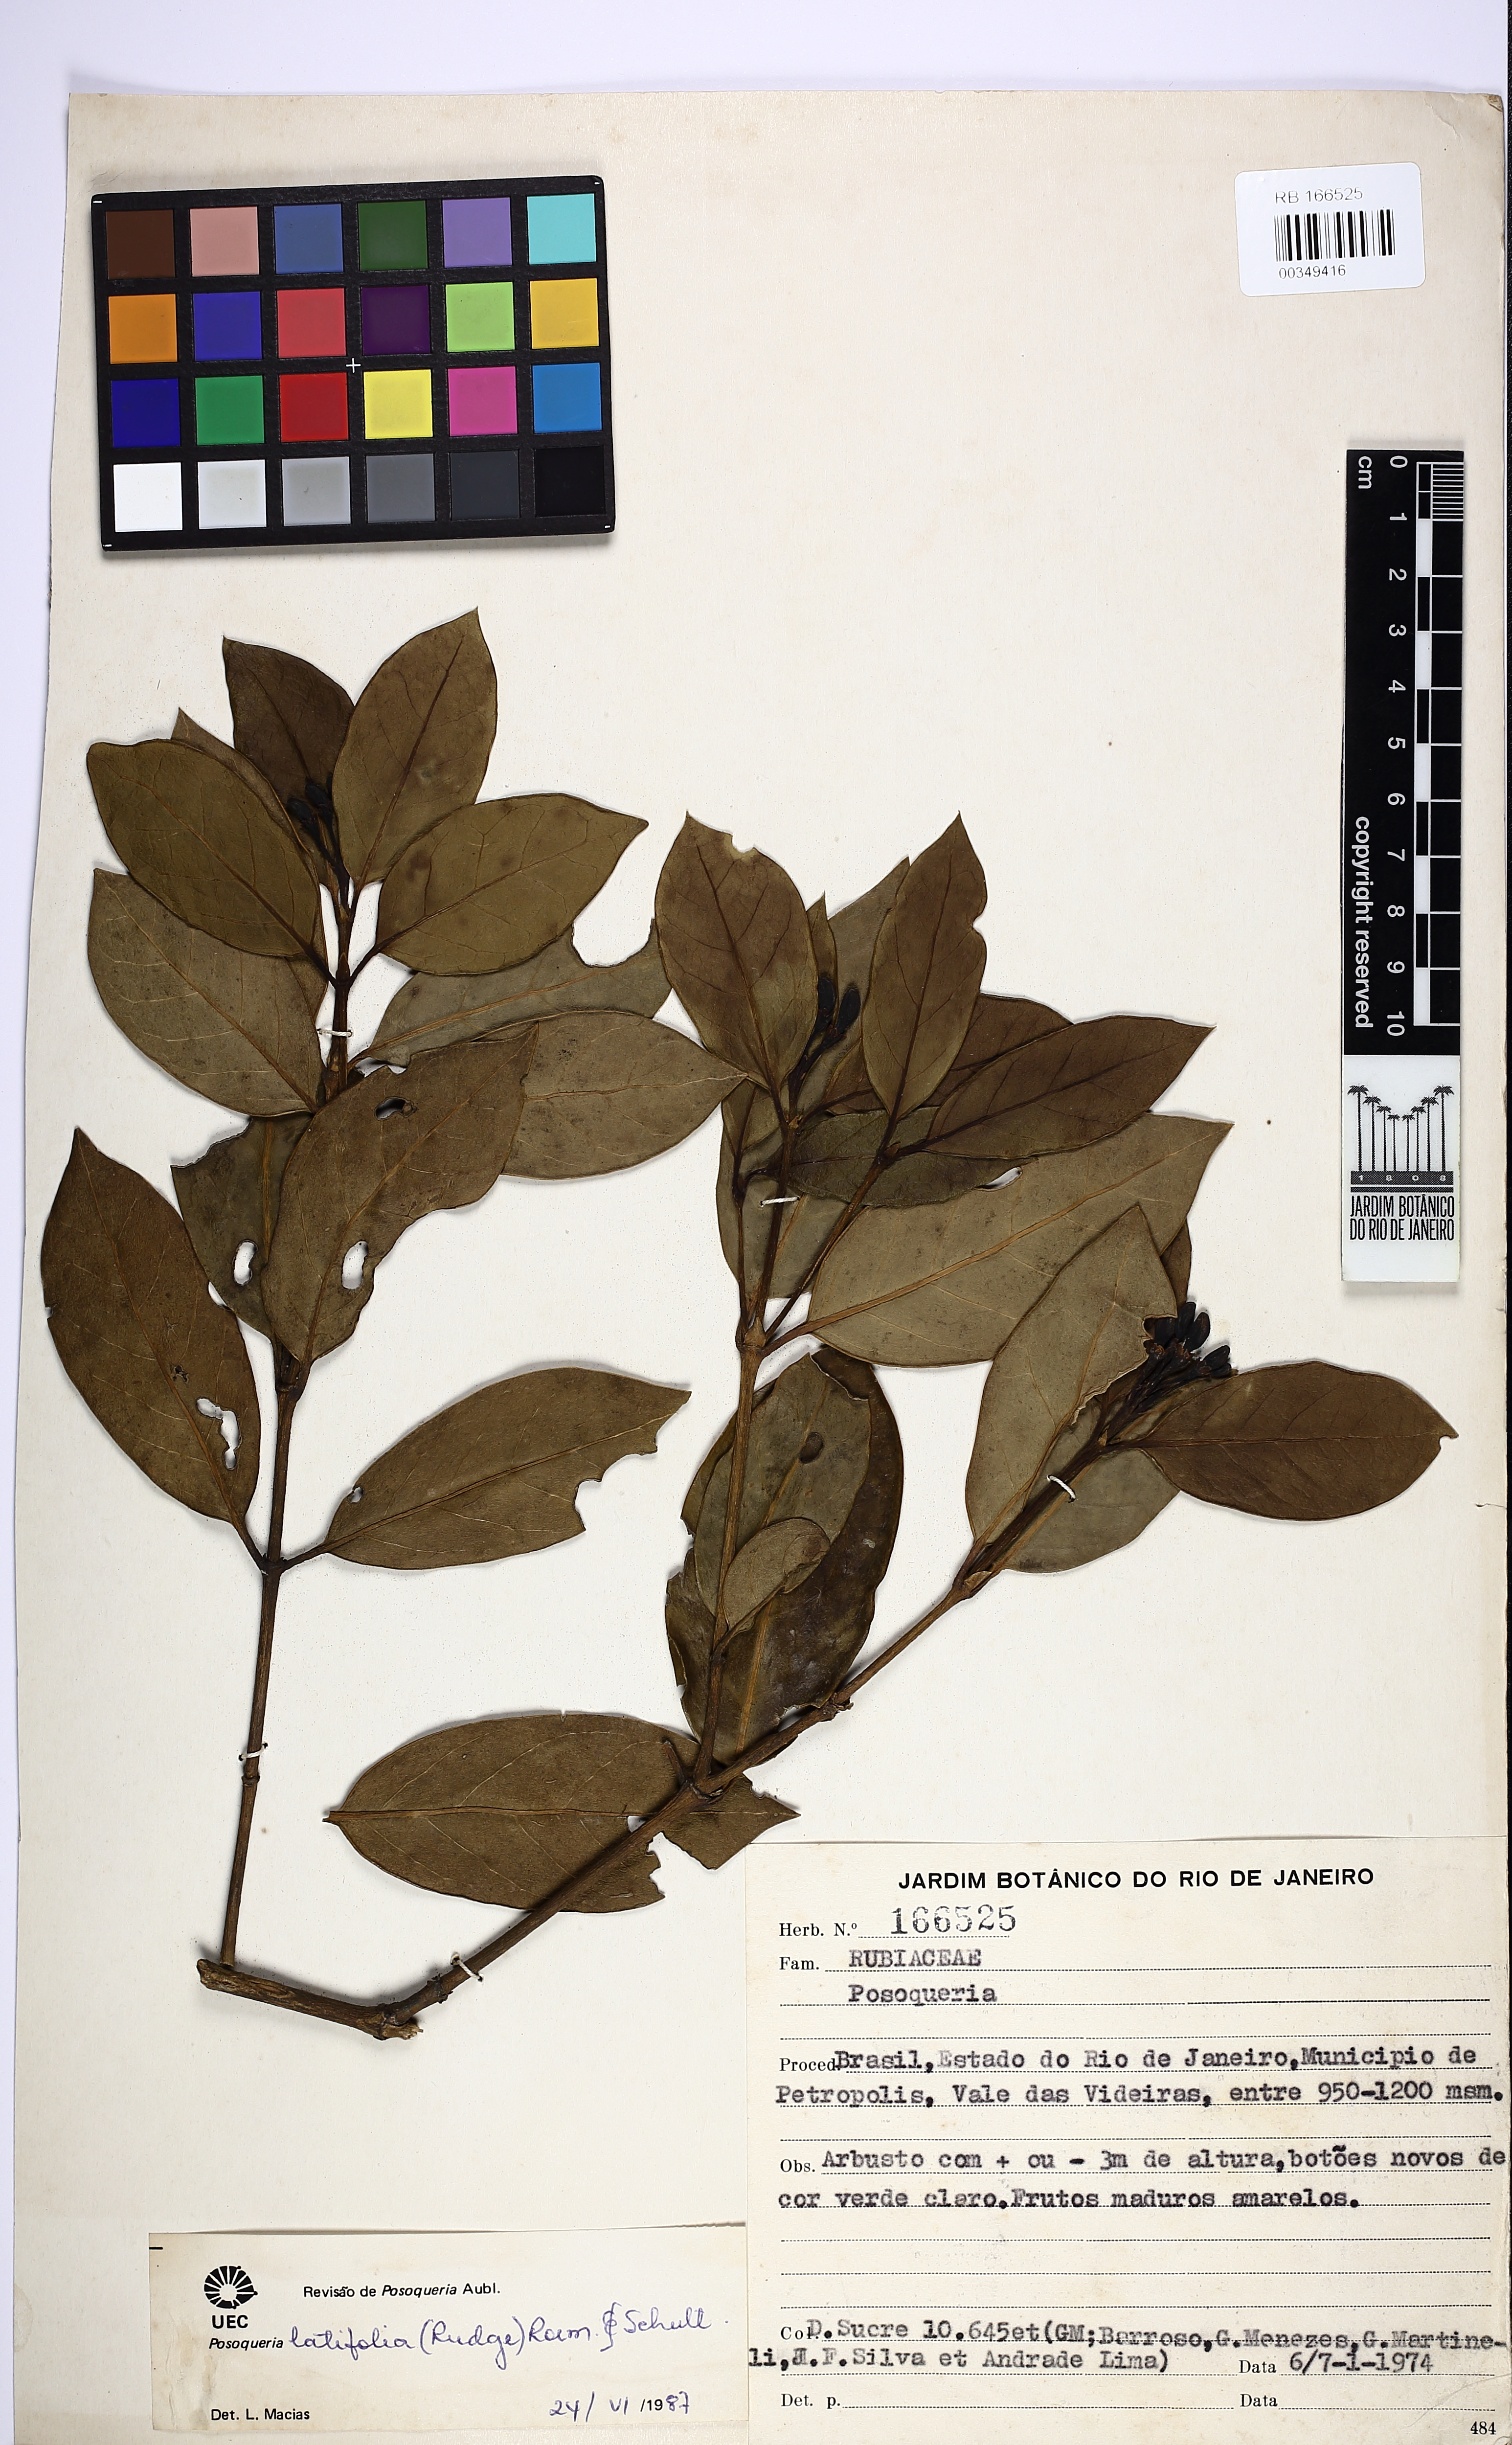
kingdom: Plantae
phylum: Tracheophyta
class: Magnoliopsida
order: Gentianales
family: Rubiaceae
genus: Posoqueria
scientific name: Posoqueria latifolia
